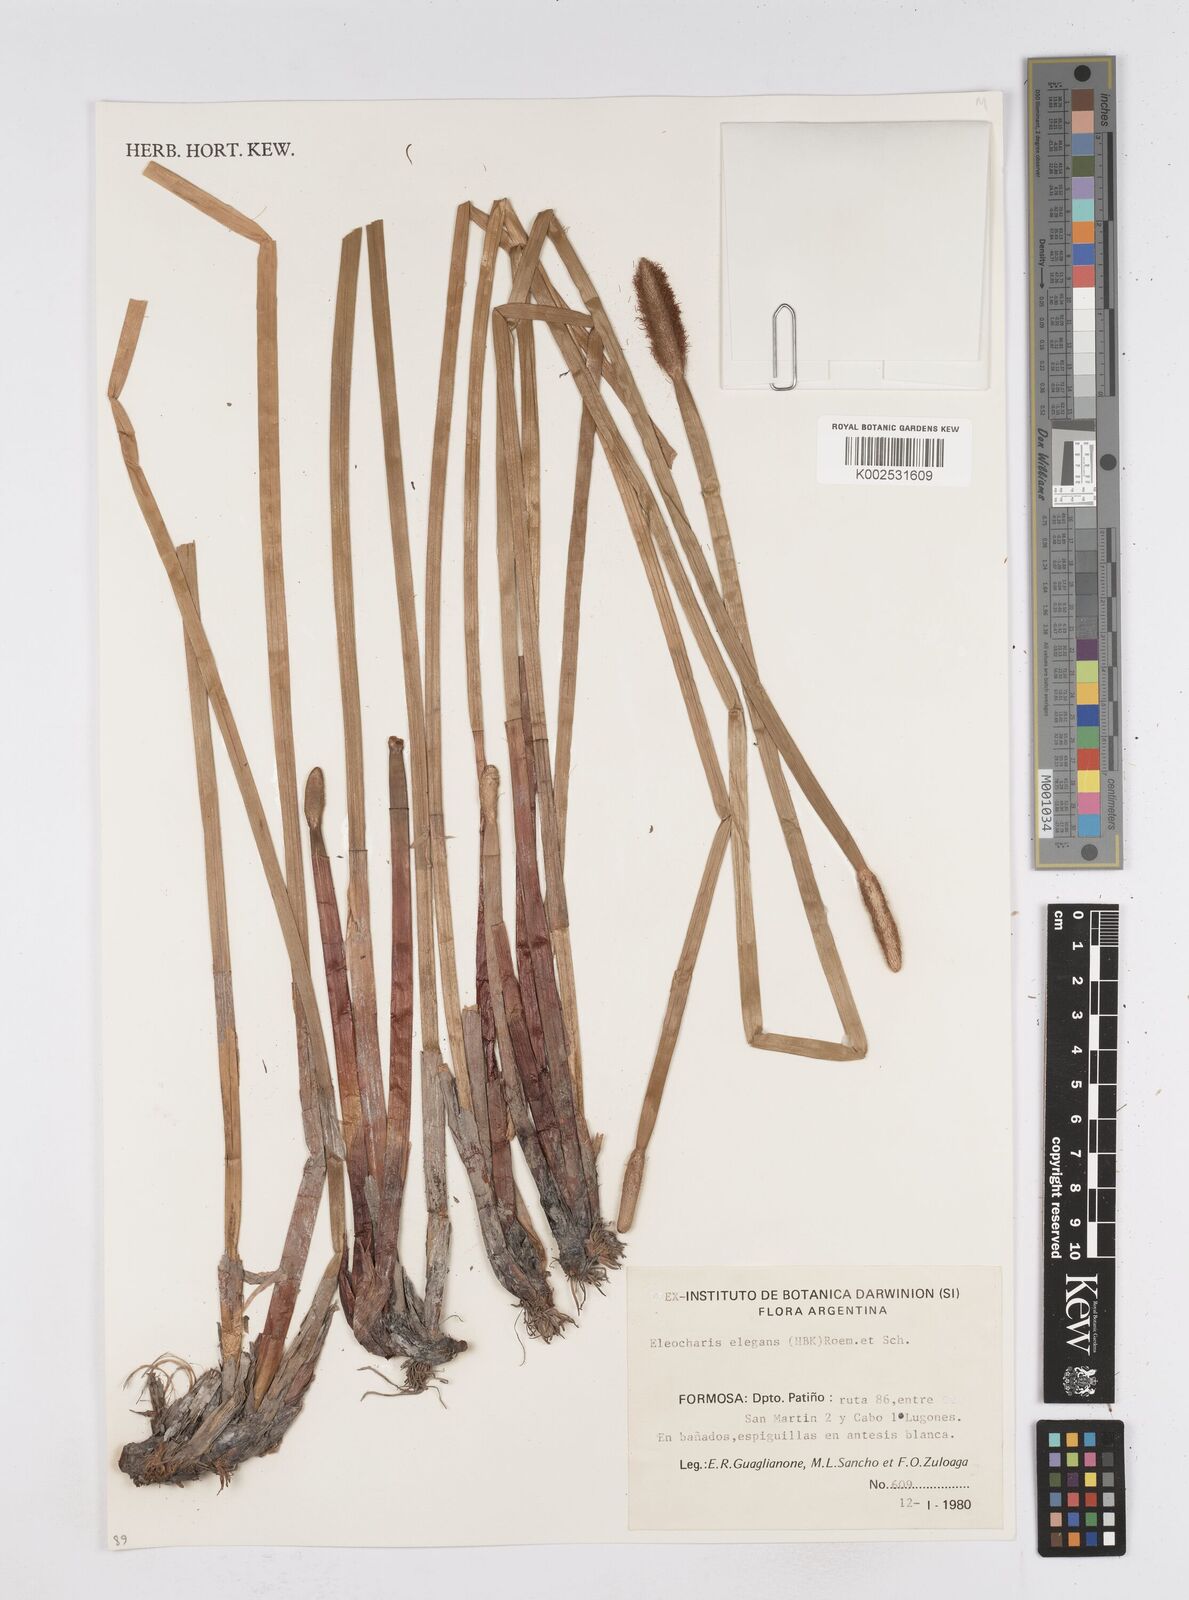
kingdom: Plantae
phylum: Tracheophyta
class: Liliopsida
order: Poales
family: Cyperaceae
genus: Eleocharis
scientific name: Eleocharis elegans
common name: Elegant spike-rush
